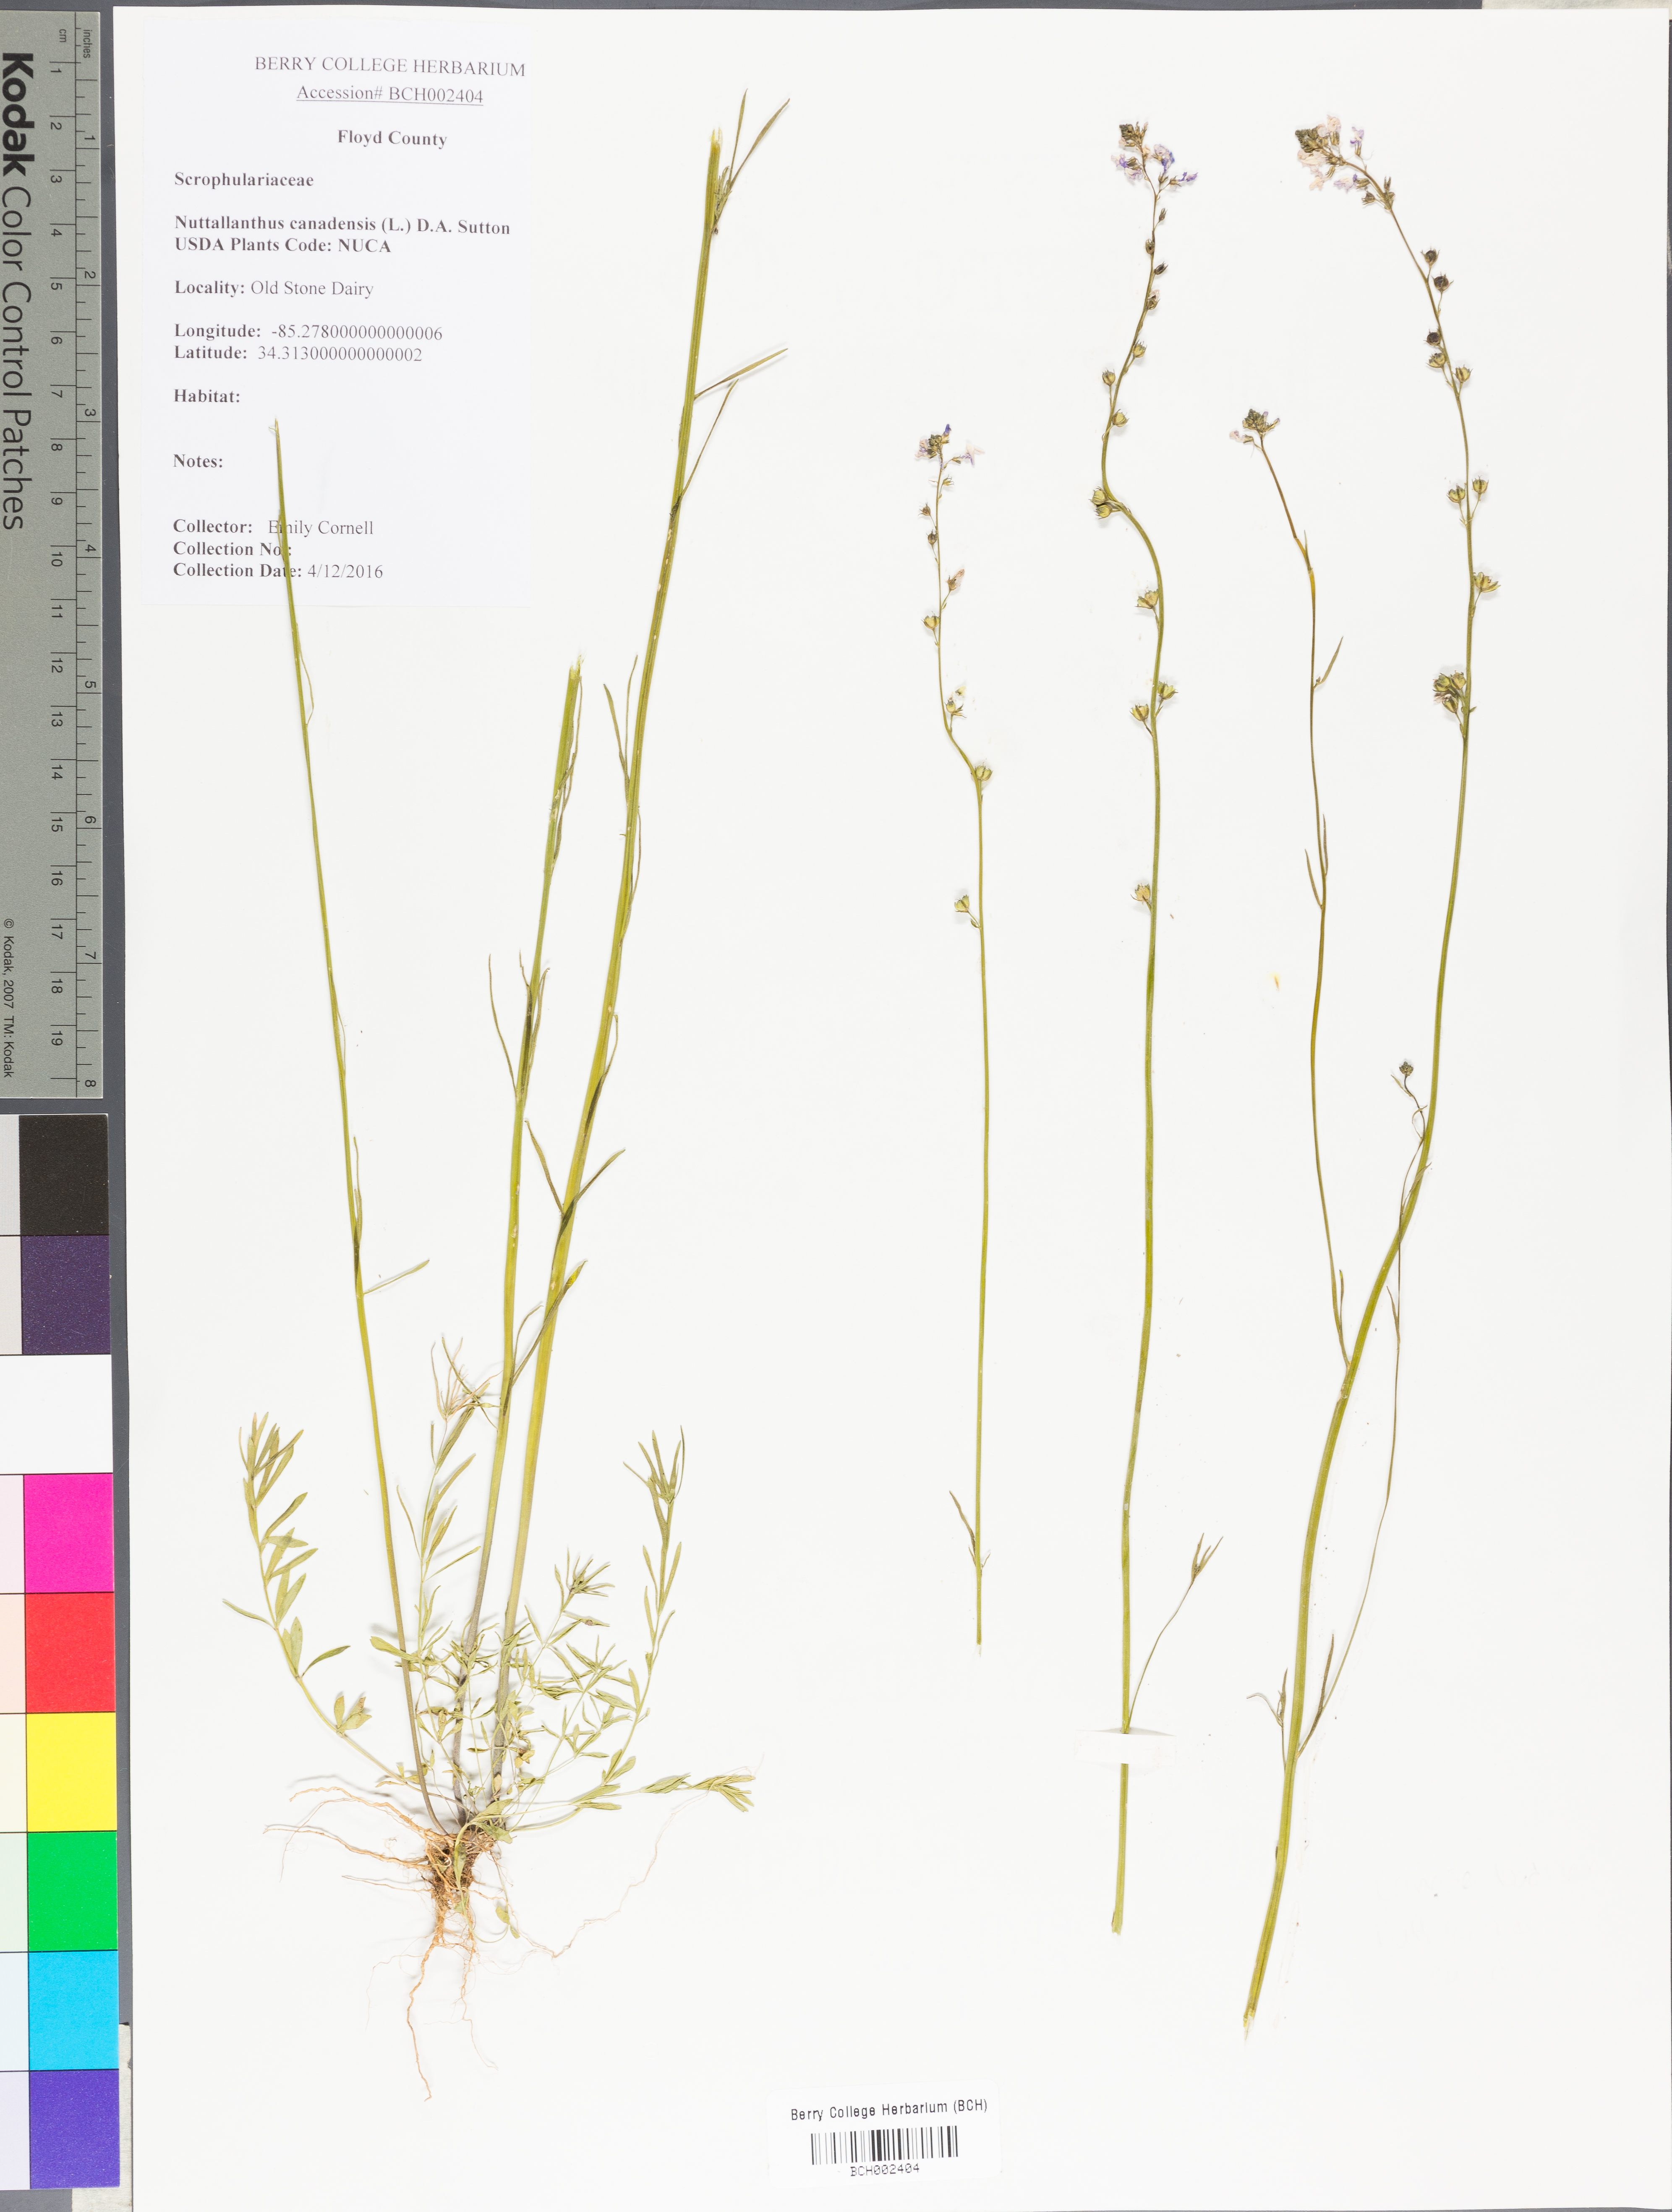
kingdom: Plantae
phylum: Tracheophyta
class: Magnoliopsida
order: Lamiales
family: Plantaginaceae
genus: Nuttallanthus
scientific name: Nuttallanthus canadensis
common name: Blue toadflax
